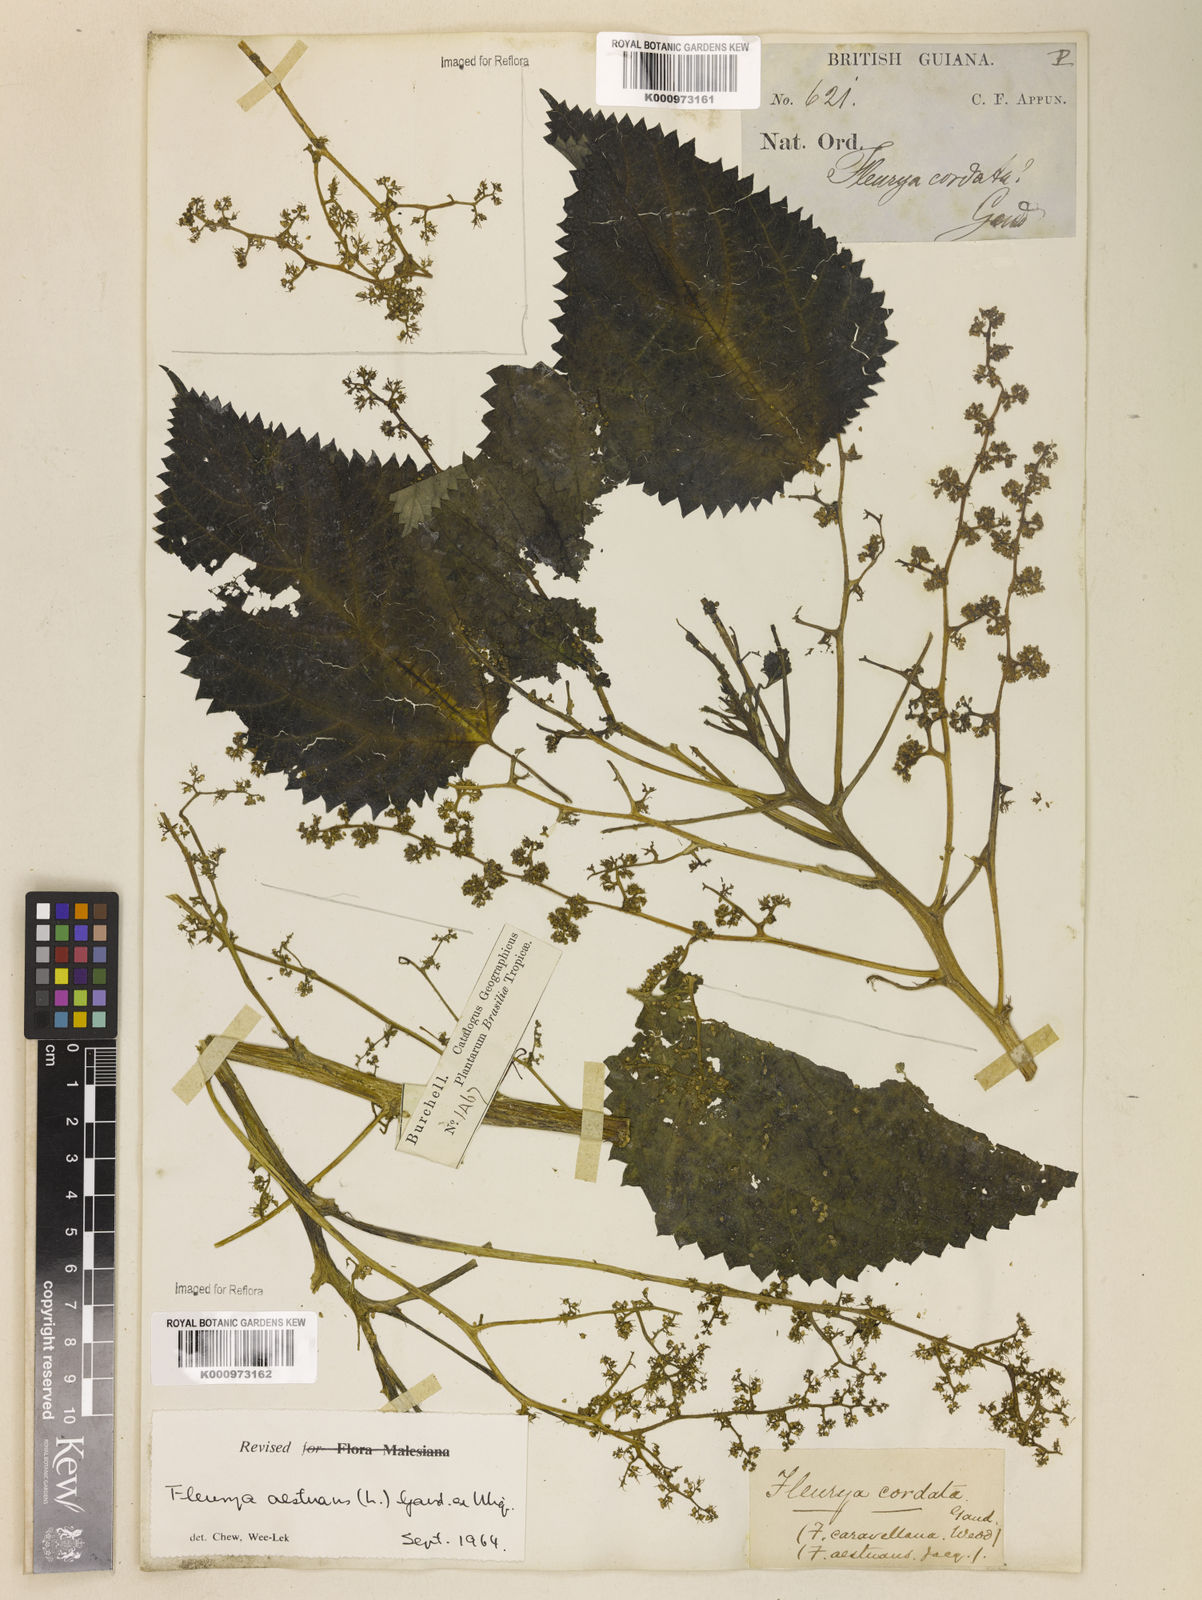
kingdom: Plantae
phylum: Tracheophyta
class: Magnoliopsida
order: Rosales
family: Urticaceae
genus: Laportea
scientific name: Laportea aestuans
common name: West indian woodnettle
